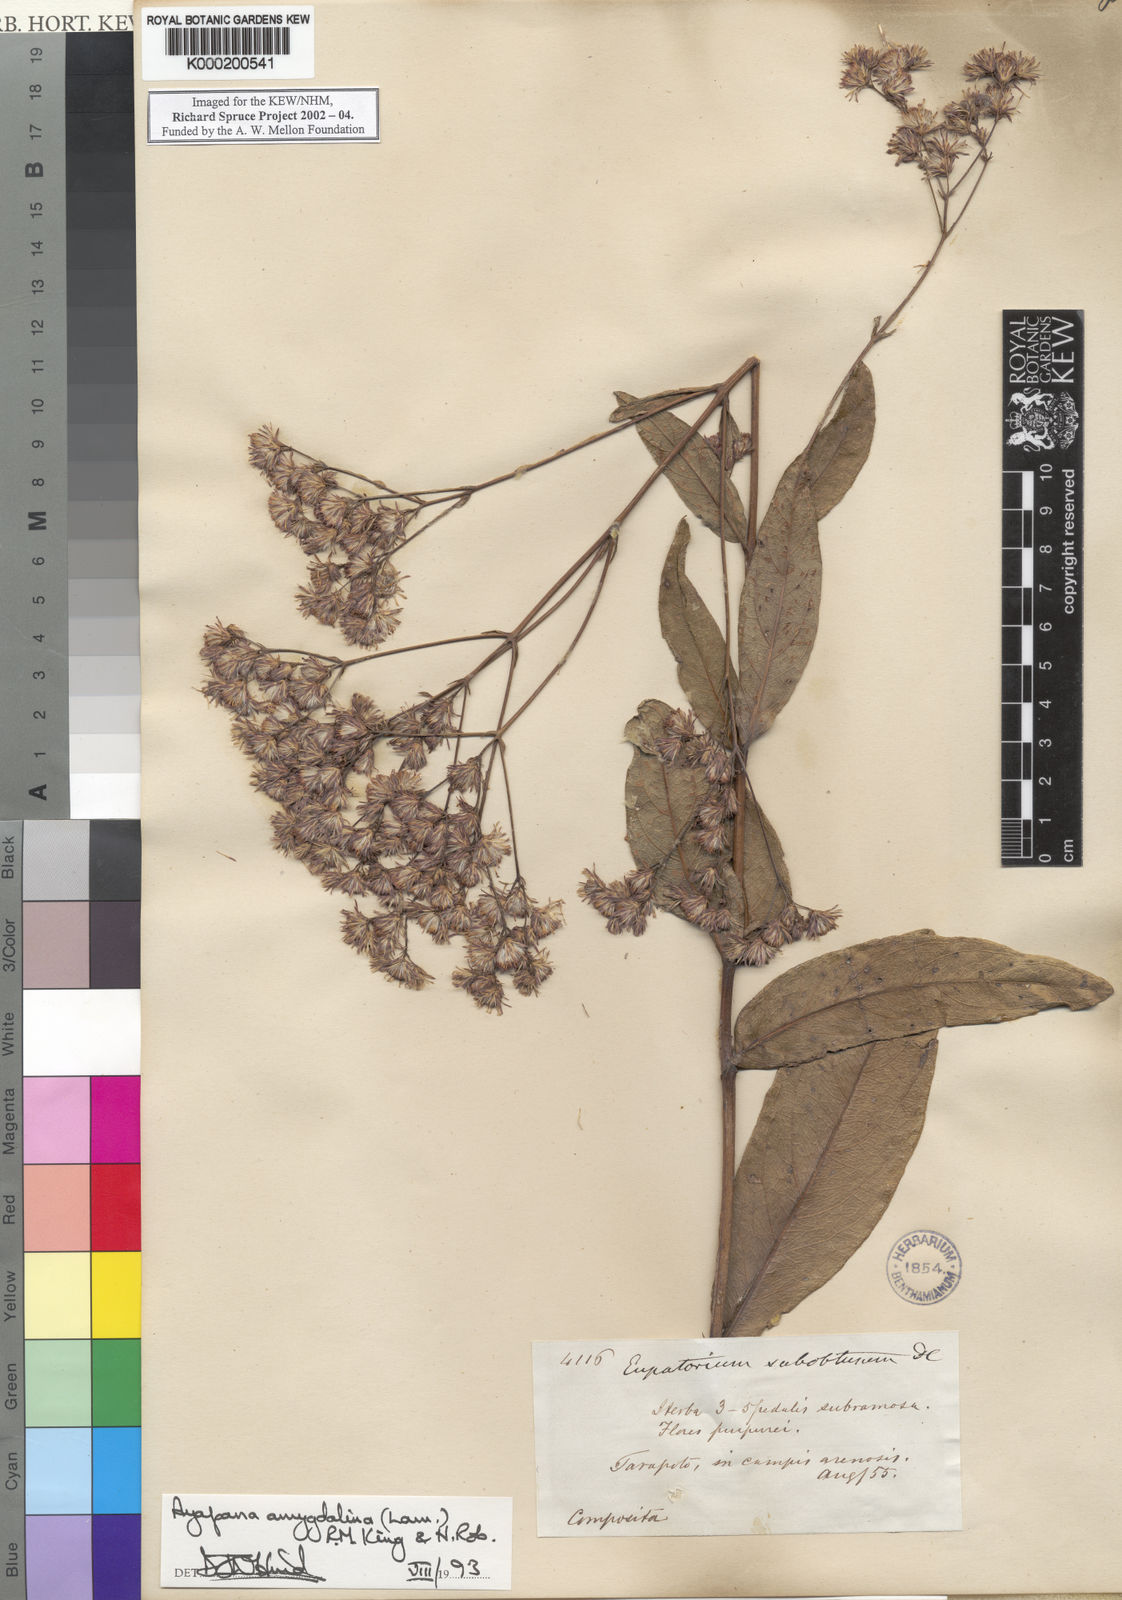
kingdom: Plantae
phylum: Tracheophyta
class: Magnoliopsida
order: Asterales
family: Asteraceae
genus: Ayapana
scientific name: Ayapana amygdalina
